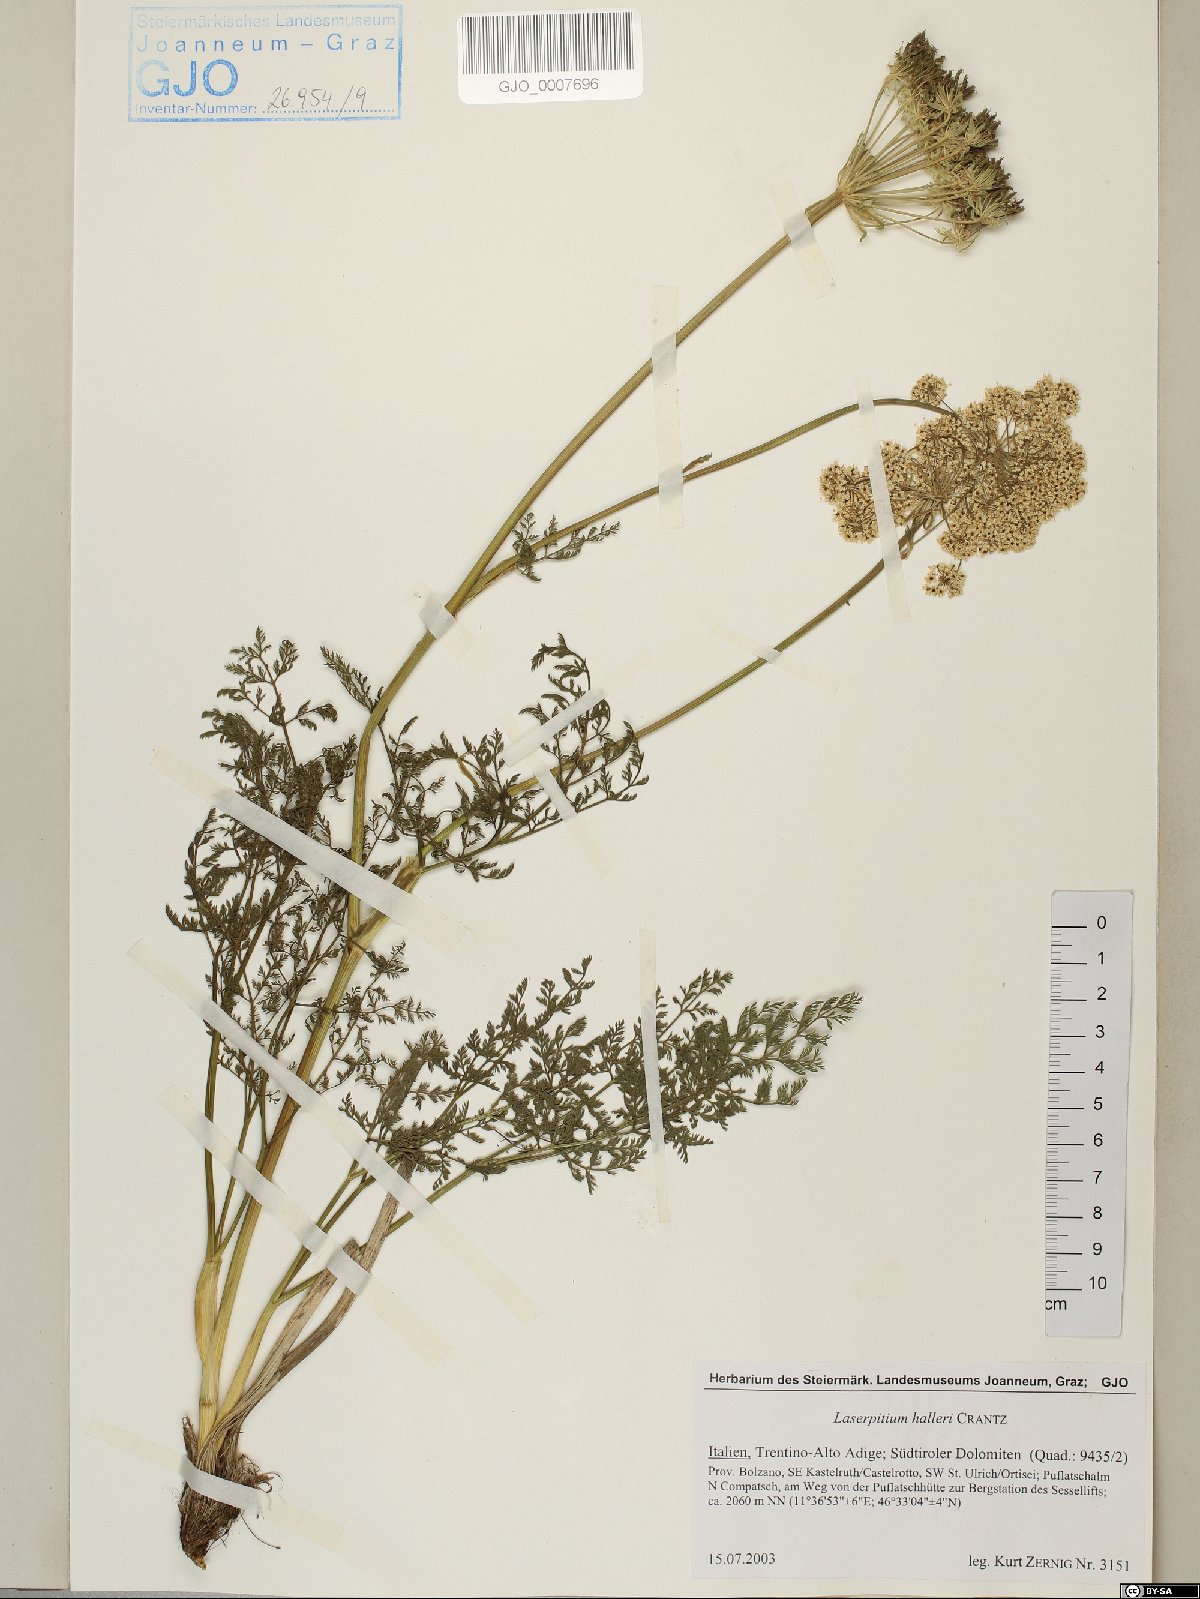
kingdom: Plantae
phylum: Tracheophyta
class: Magnoliopsida
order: Apiales
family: Apiaceae
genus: Laserpitium
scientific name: Laserpitium halleri
